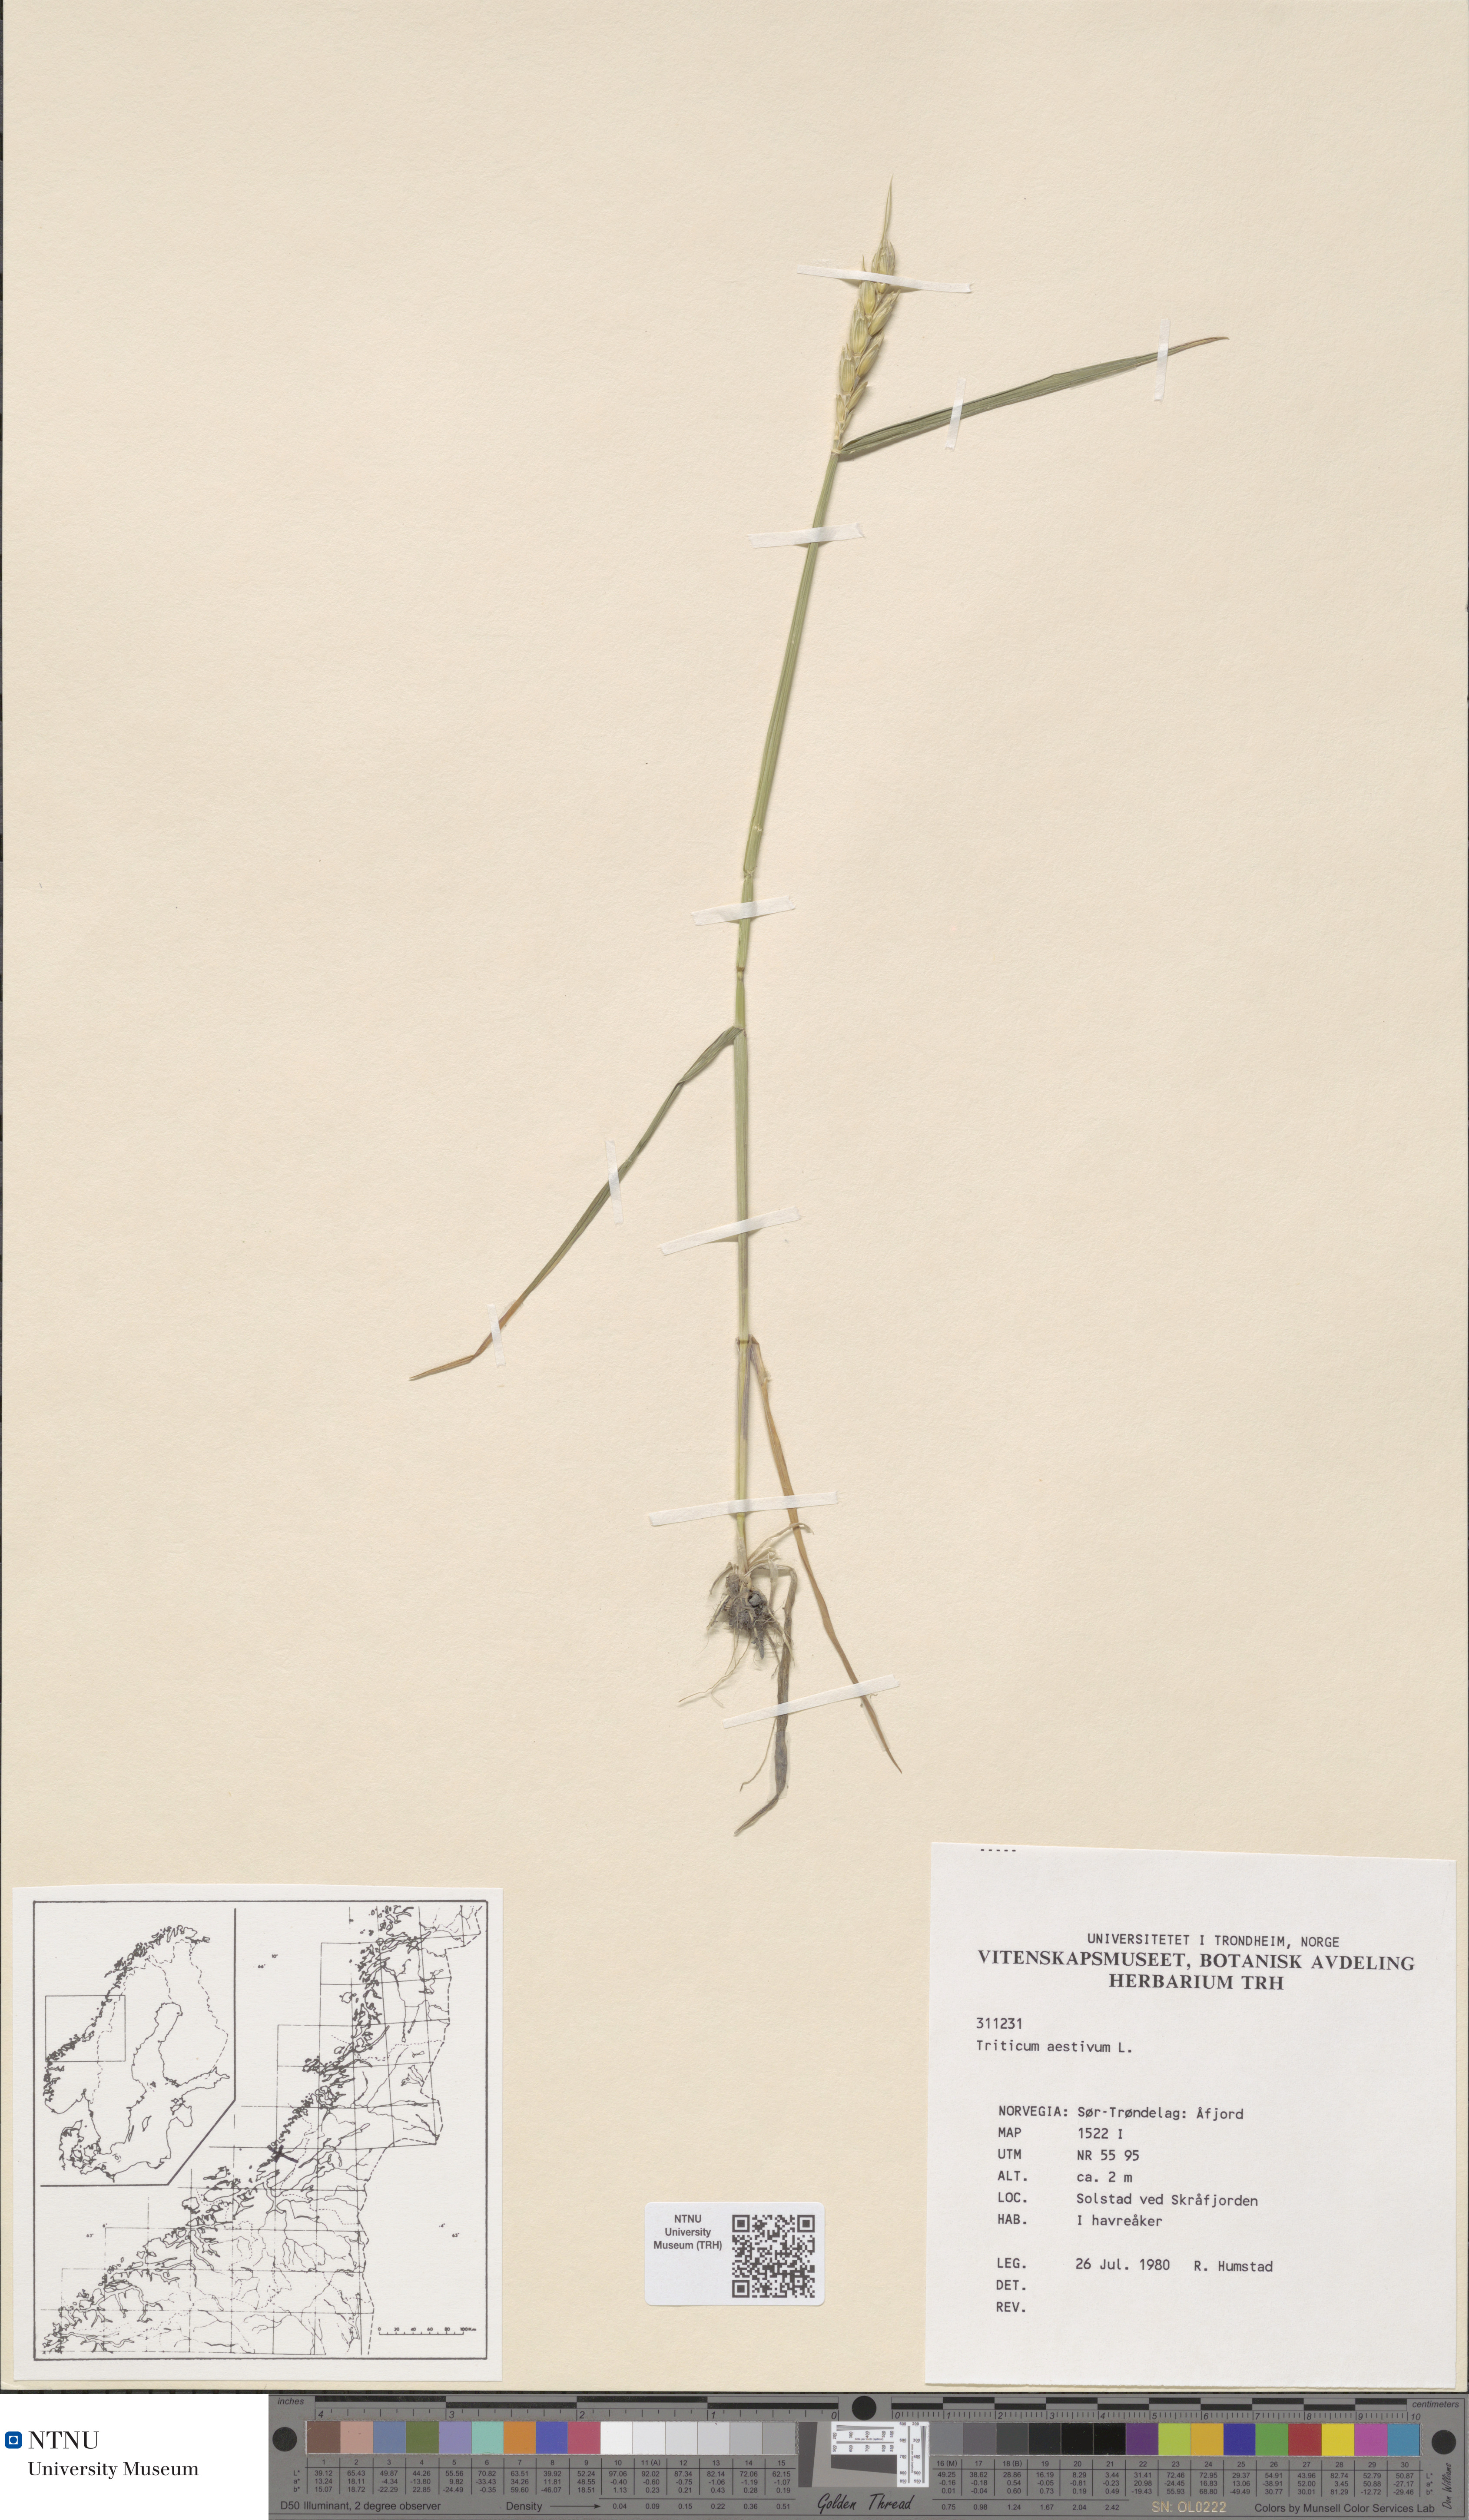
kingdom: Plantae
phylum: Tracheophyta
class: Liliopsida
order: Poales
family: Poaceae
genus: Triticum
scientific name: Triticum aestivum
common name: Common wheat
